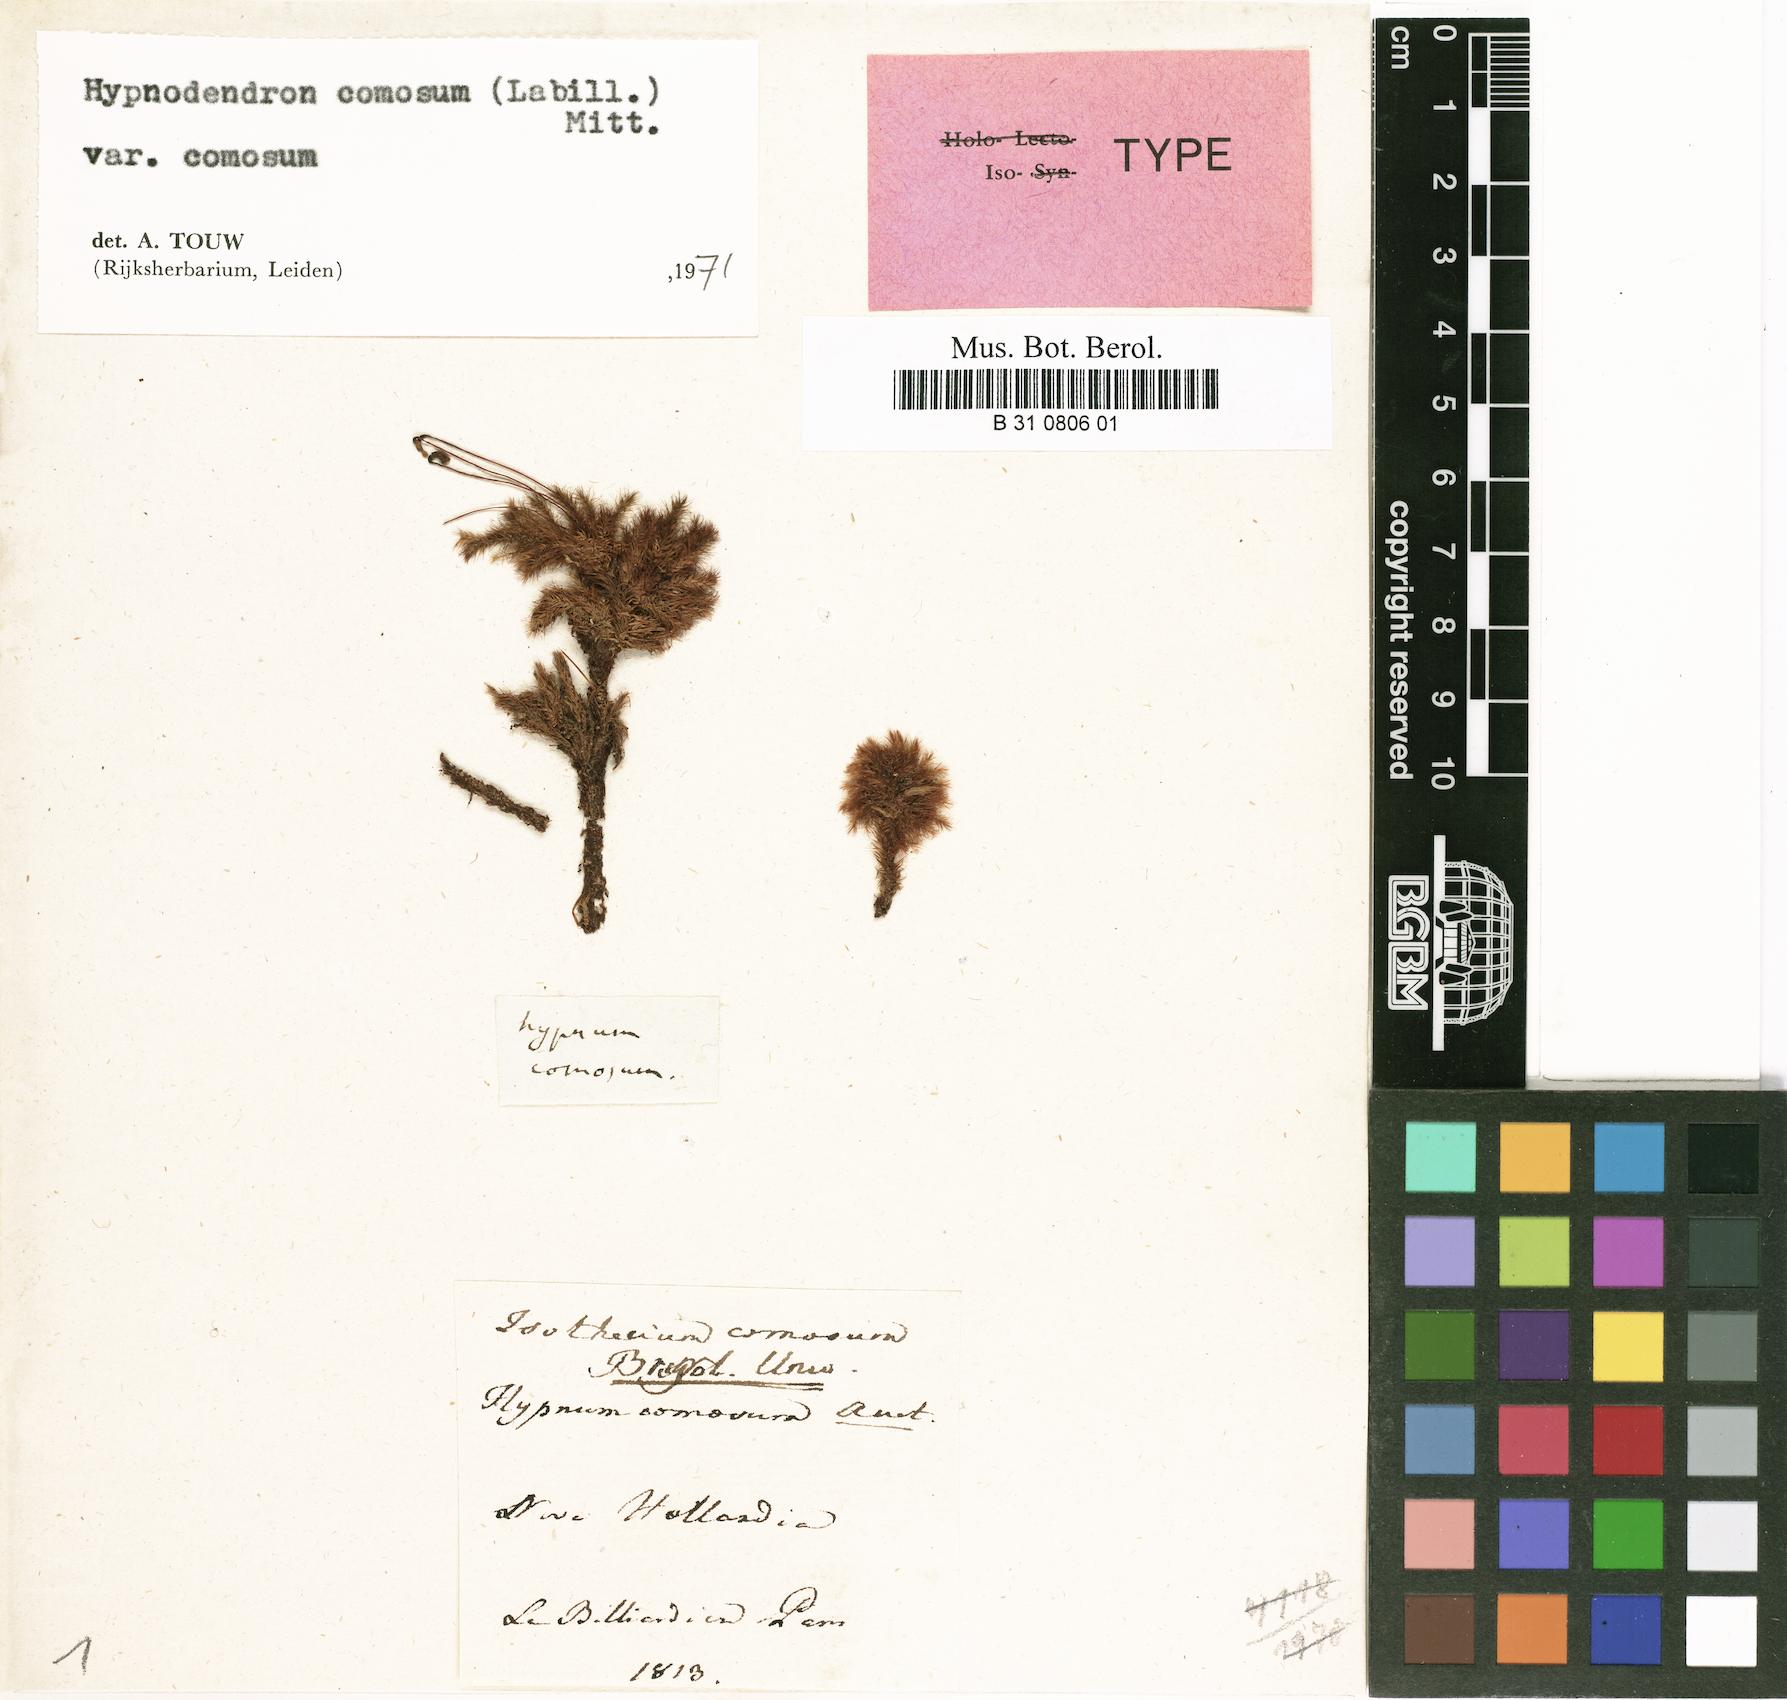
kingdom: Plantae
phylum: Bryophyta
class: Bryopsida
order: Hypnodendrales
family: Spiridentaceae
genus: Mniodendron
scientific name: Mniodendron comosum
